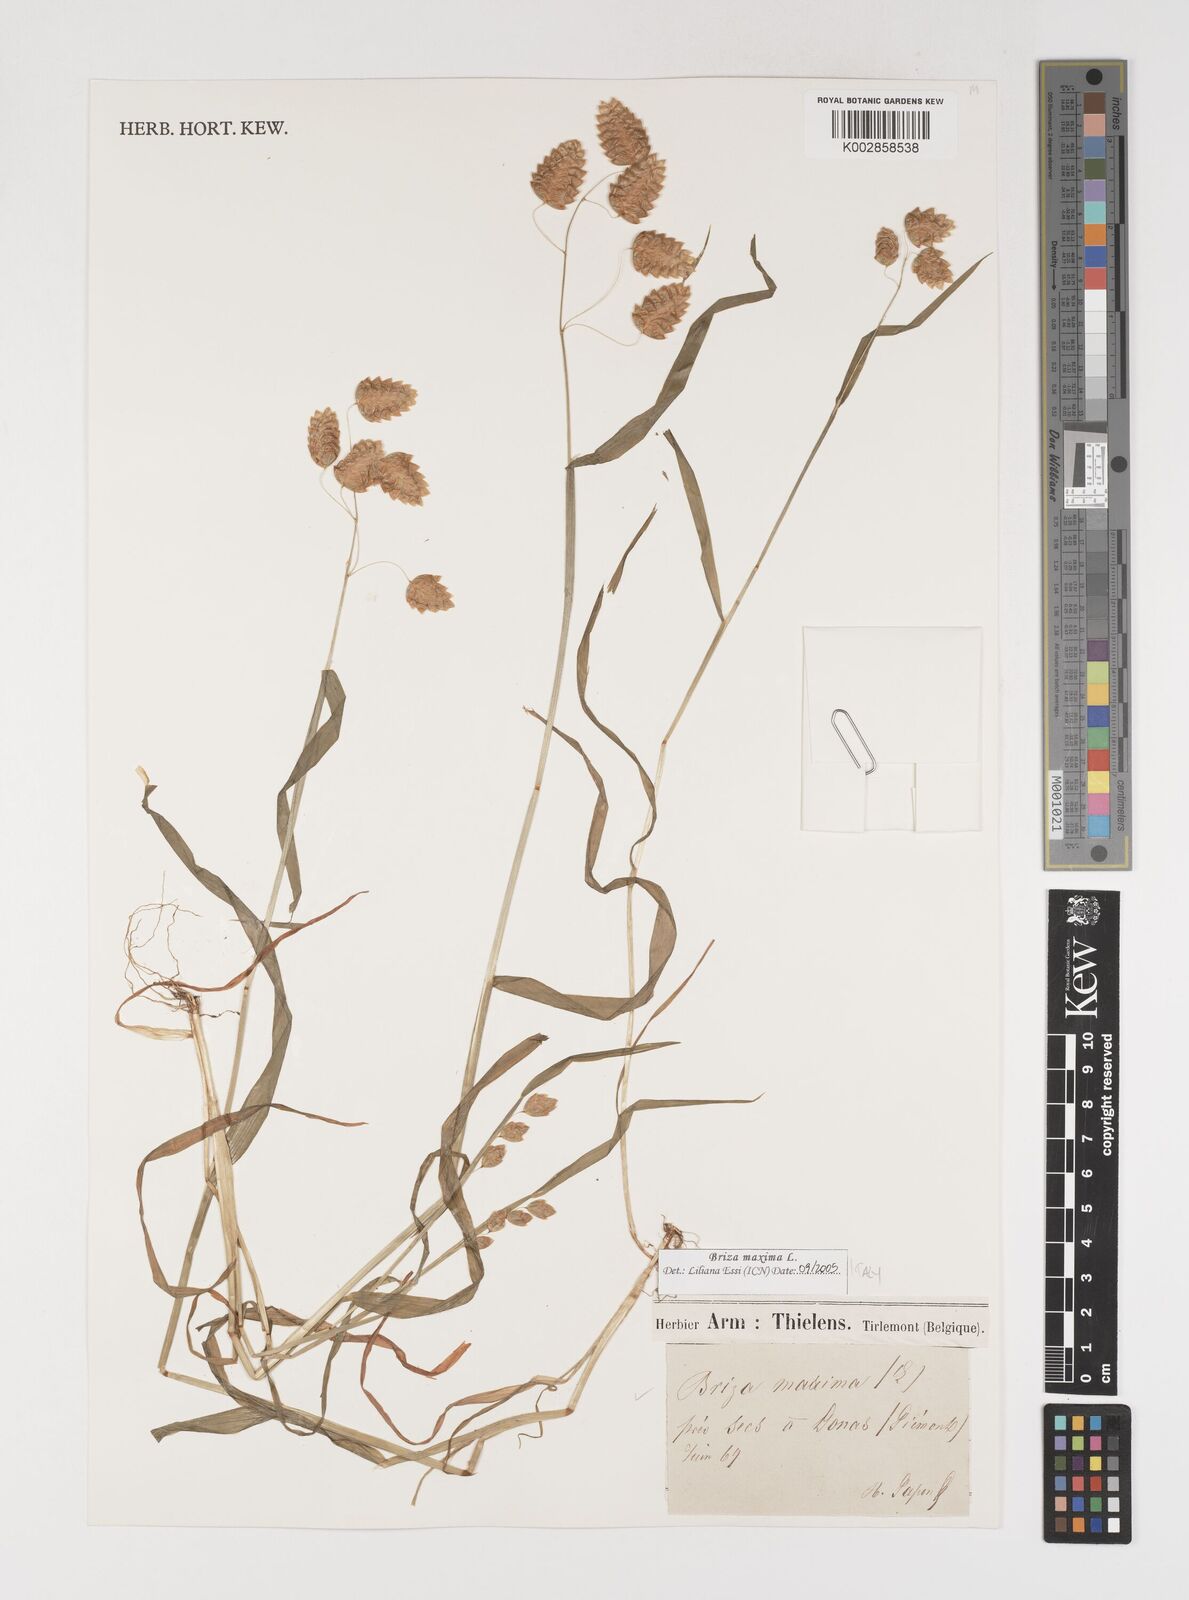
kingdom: Plantae
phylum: Tracheophyta
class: Liliopsida
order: Poales
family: Poaceae
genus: Briza
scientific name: Briza maxima
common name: Big quakinggrass
